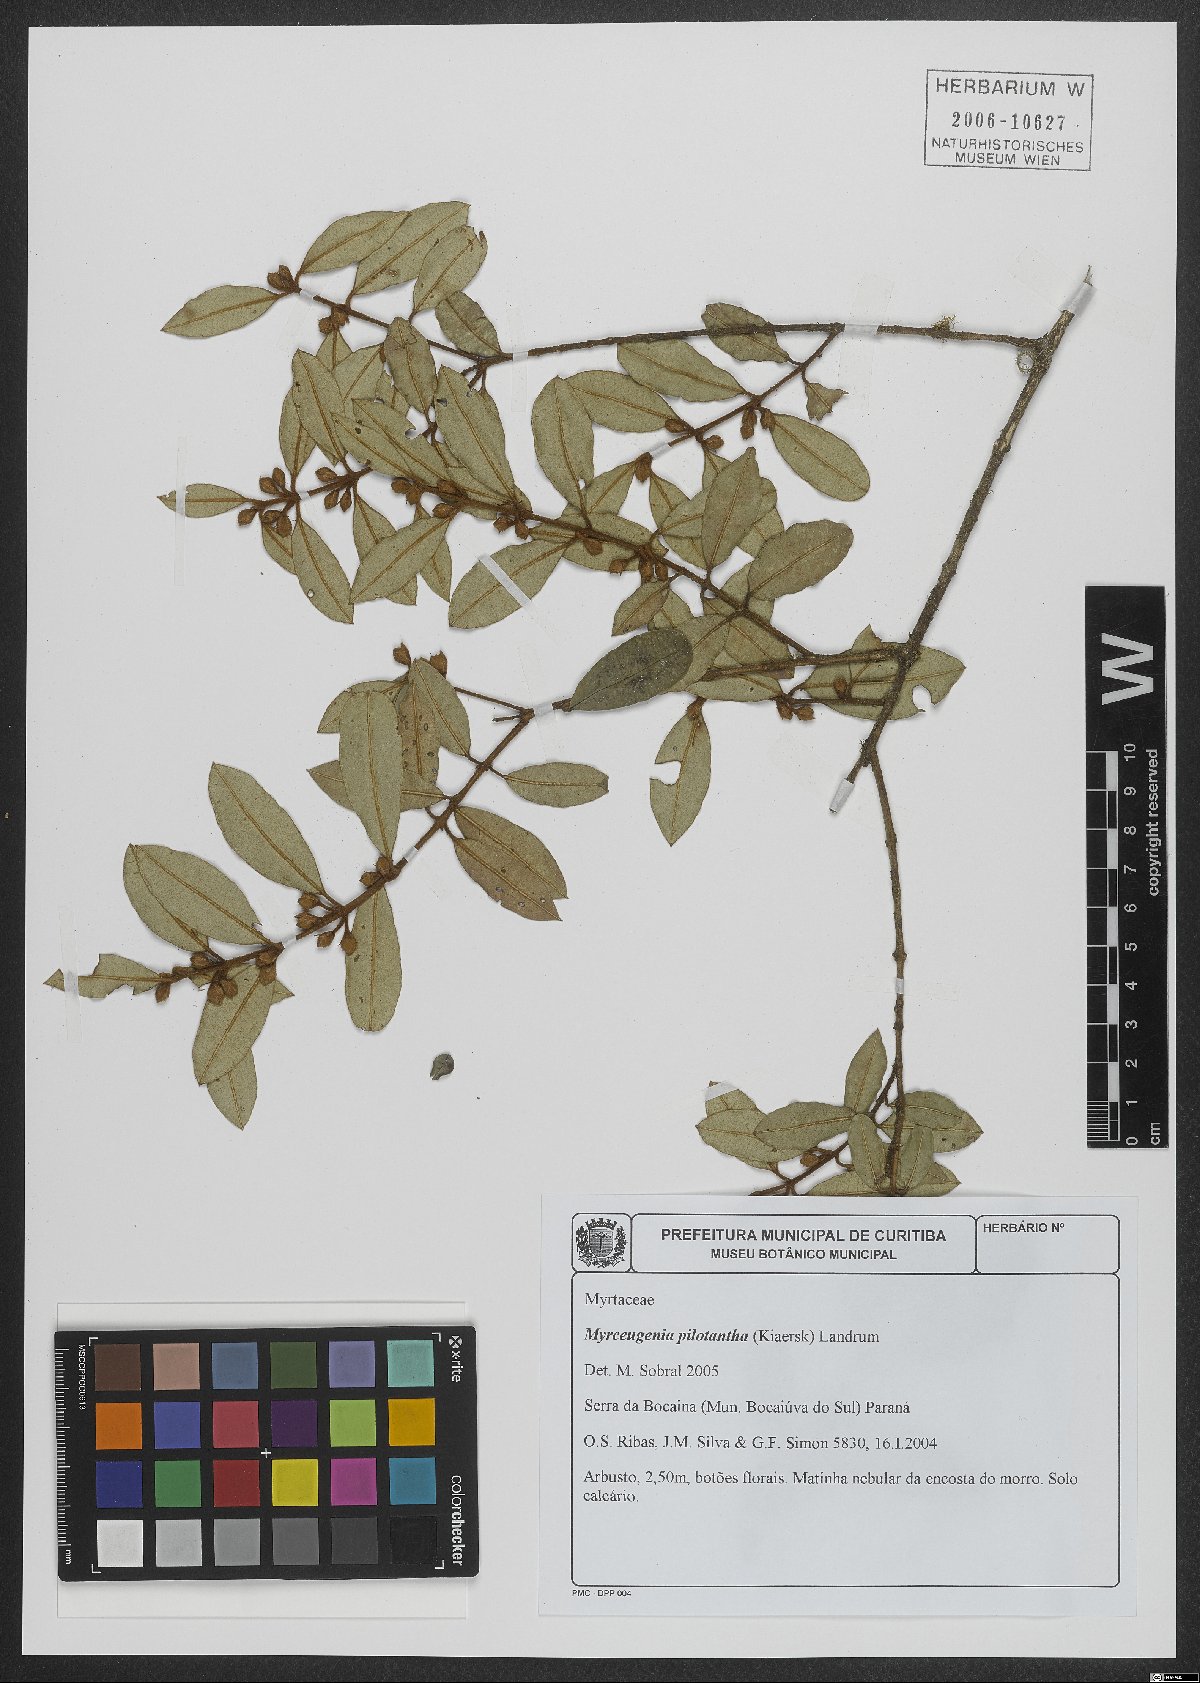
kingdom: Plantae
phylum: Tracheophyta
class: Magnoliopsida
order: Myrtales
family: Myrtaceae
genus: Myrceugenia
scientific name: Myrceugenia pilotantha
